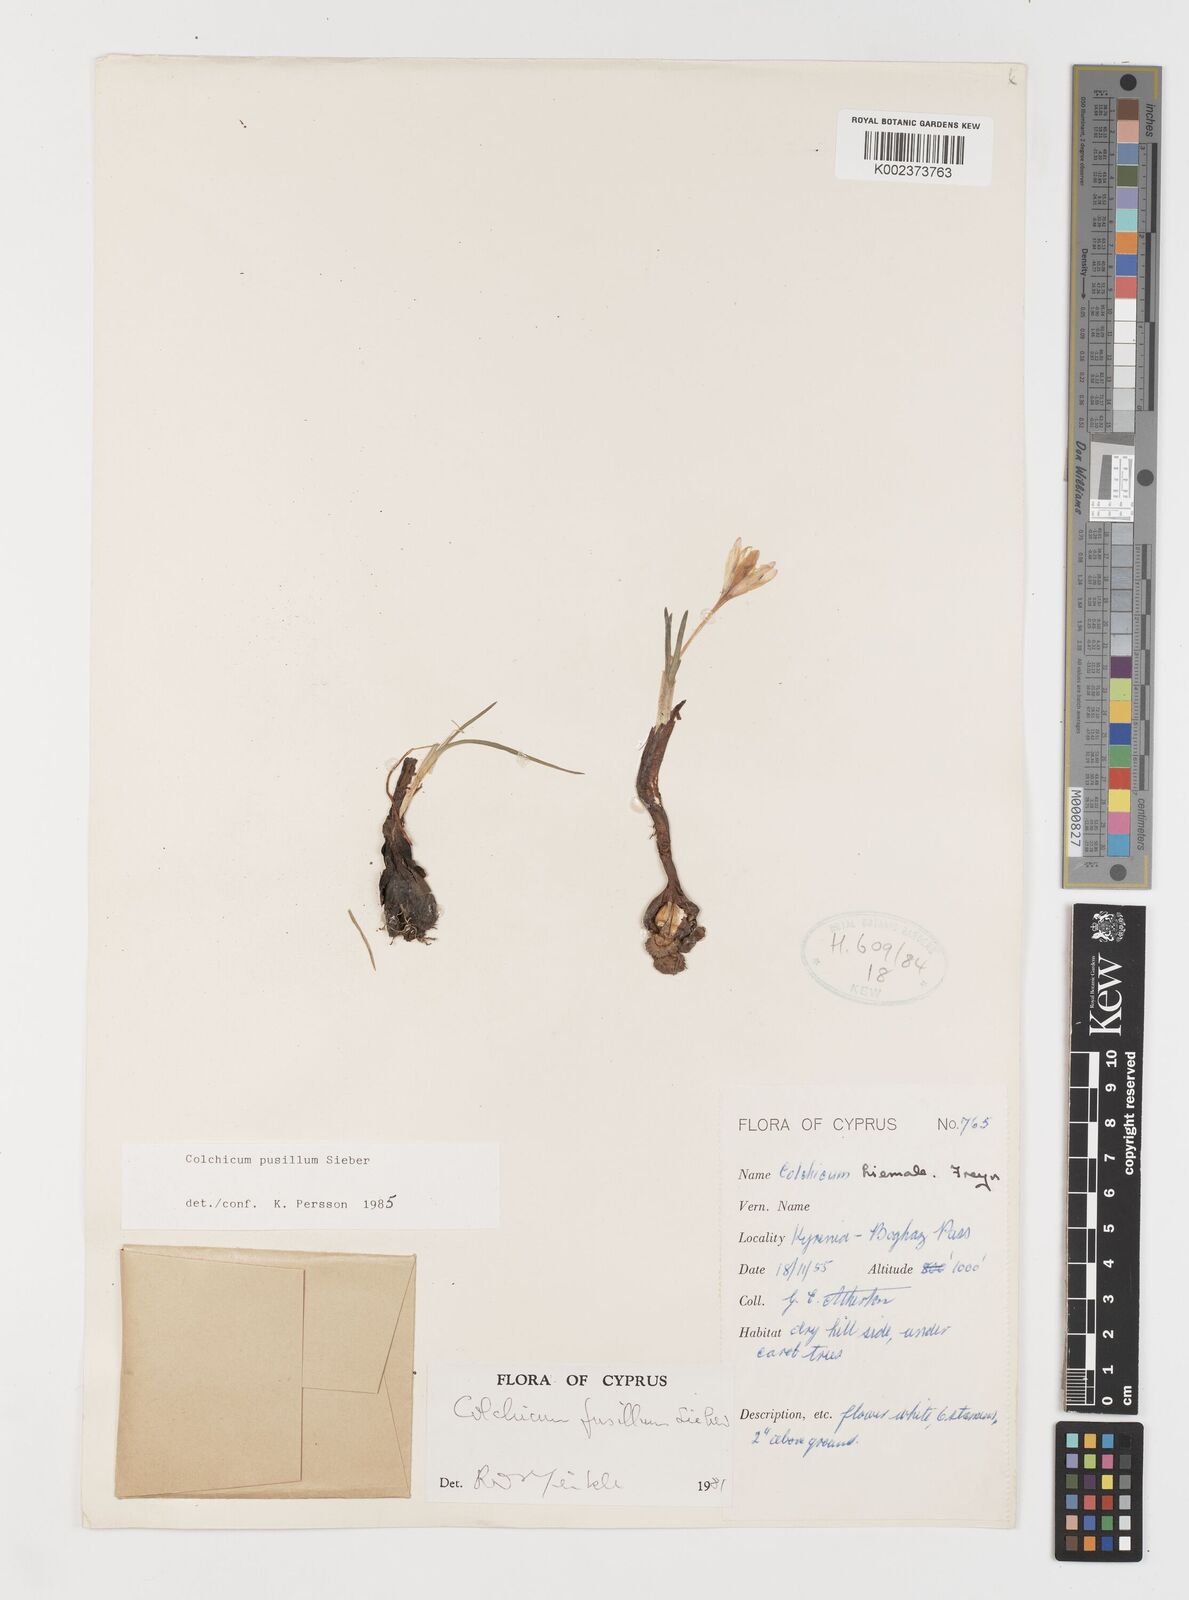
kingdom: Plantae
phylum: Tracheophyta
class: Liliopsida
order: Liliales
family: Colchicaceae
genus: Colchicum
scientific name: Colchicum pusillum
